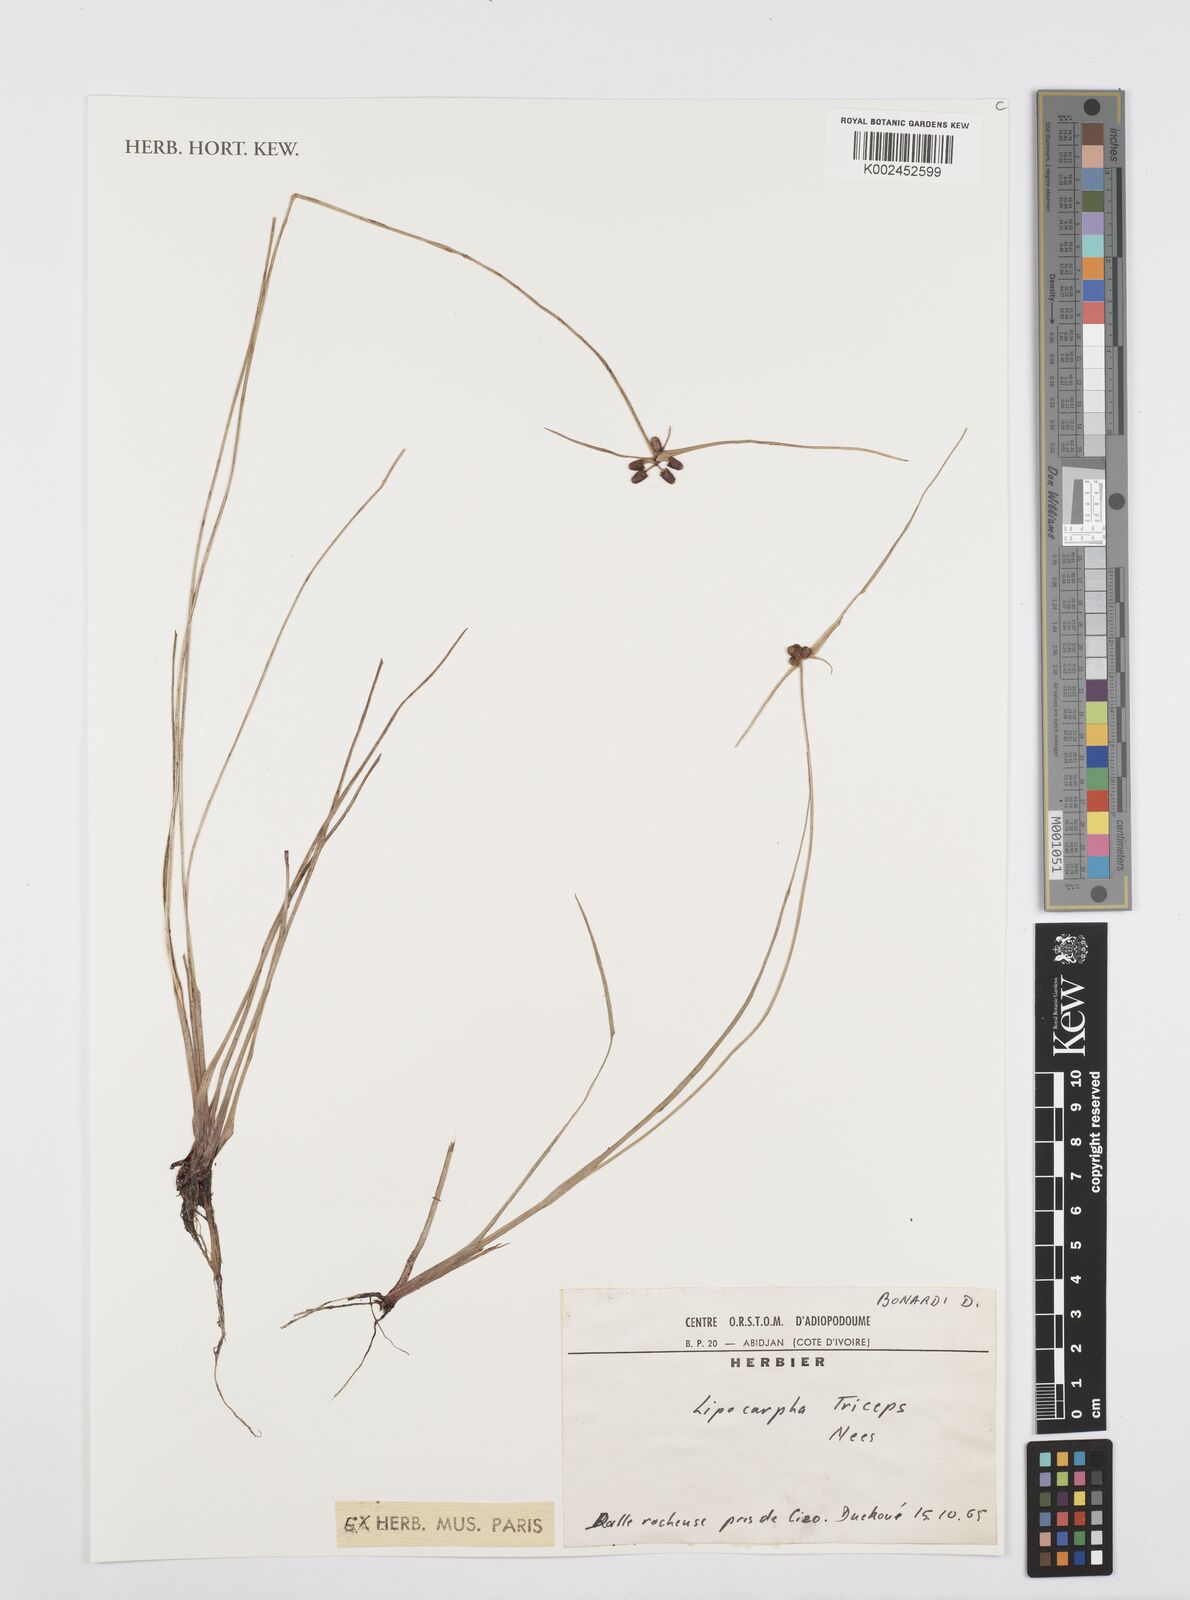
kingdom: Plantae
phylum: Tracheophyta
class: Liliopsida
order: Poales
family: Cyperaceae
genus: Cyperus
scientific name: Cyperus sphacelatus
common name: Roadside flatsedge
